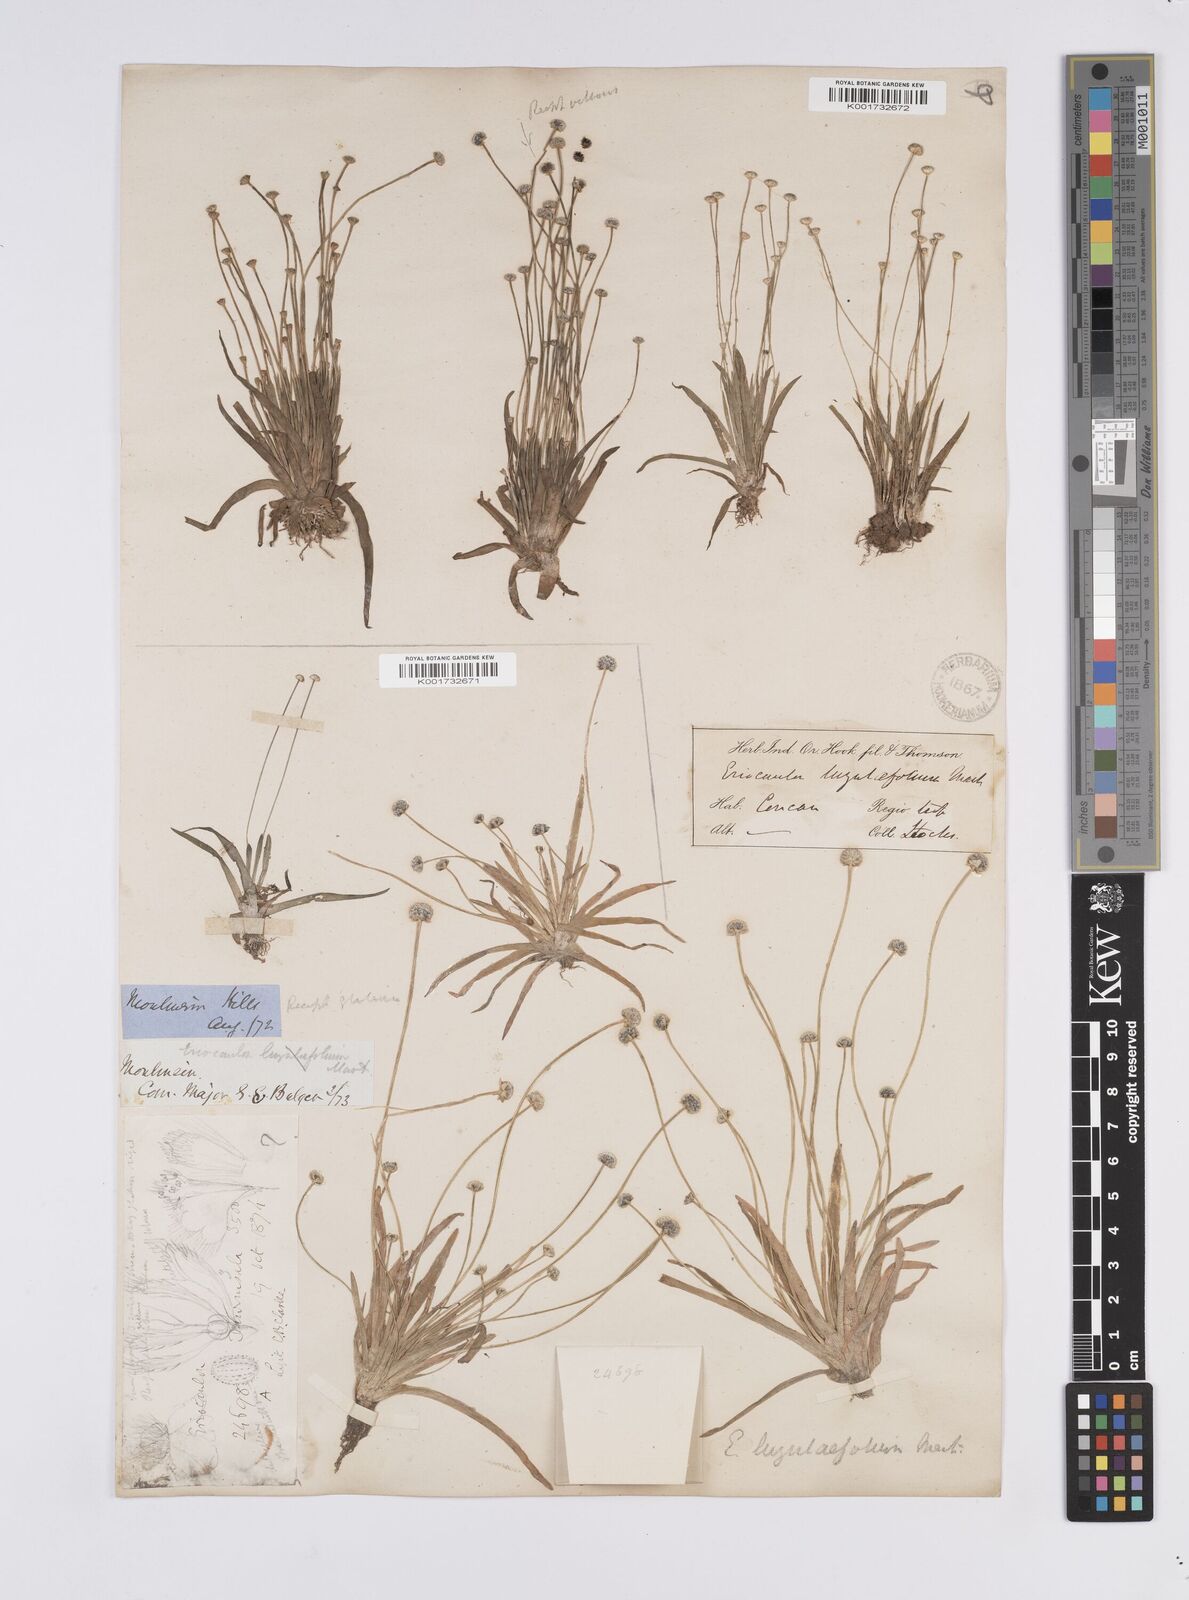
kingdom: Plantae
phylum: Tracheophyta
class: Liliopsida
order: Poales
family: Eriocaulaceae
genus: Eriocaulon
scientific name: Eriocaulon nepalense
